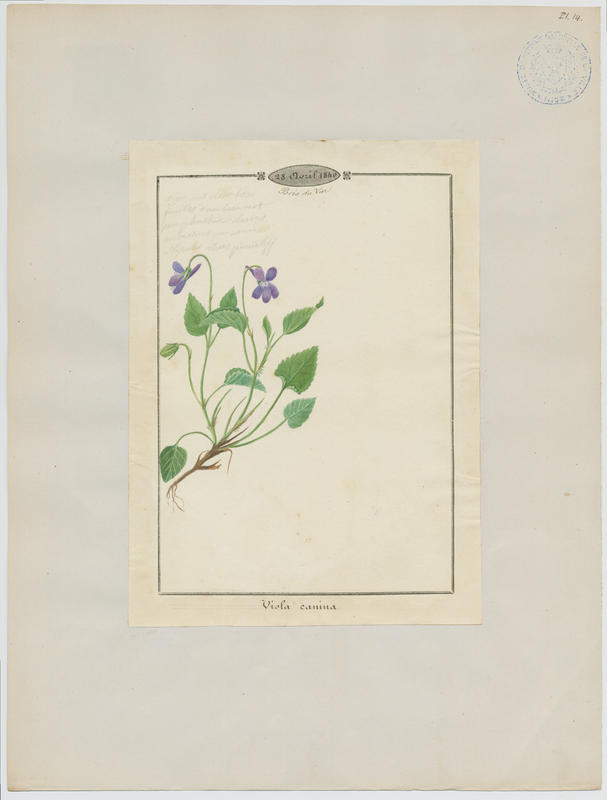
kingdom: Plantae
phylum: Tracheophyta
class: Magnoliopsida
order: Malpighiales
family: Violaceae
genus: Viola
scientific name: Viola canina
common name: Heath dog-violet
